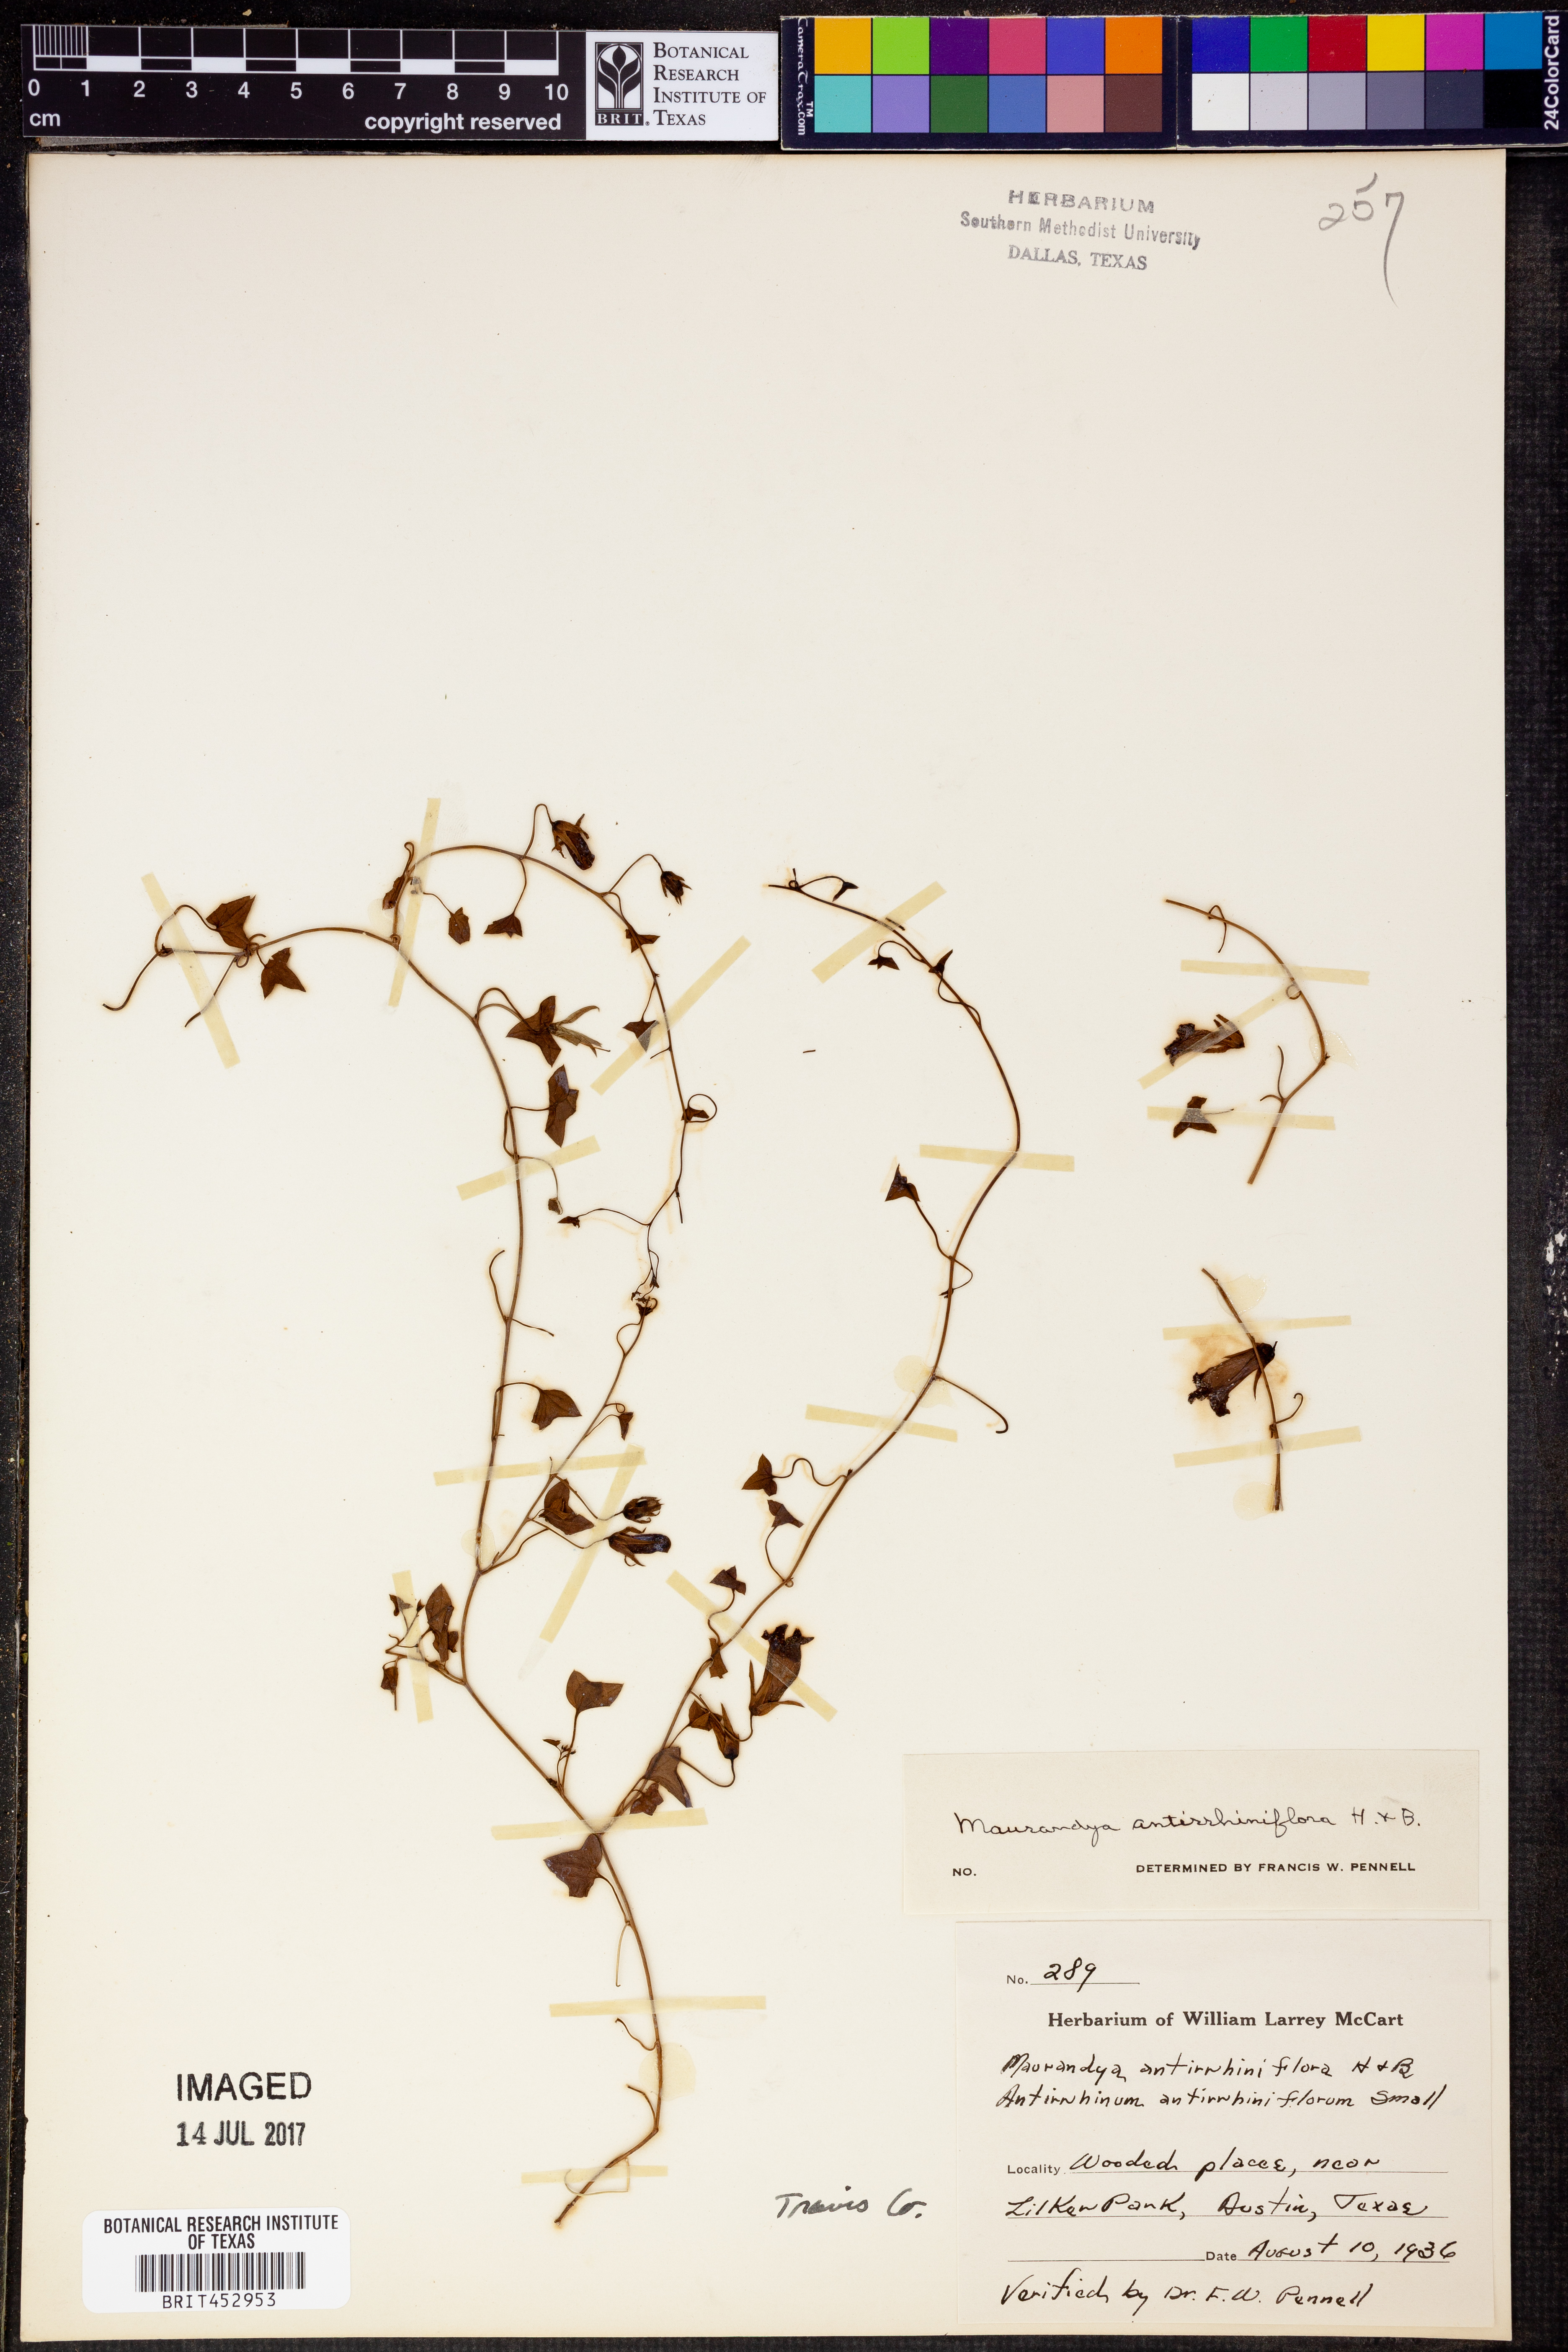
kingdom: Plantae
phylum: Tracheophyta
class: Magnoliopsida
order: Lamiales
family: Plantaginaceae
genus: Maurandella
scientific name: Maurandella antirrhiniflora
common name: Violet twining-snapdragon
